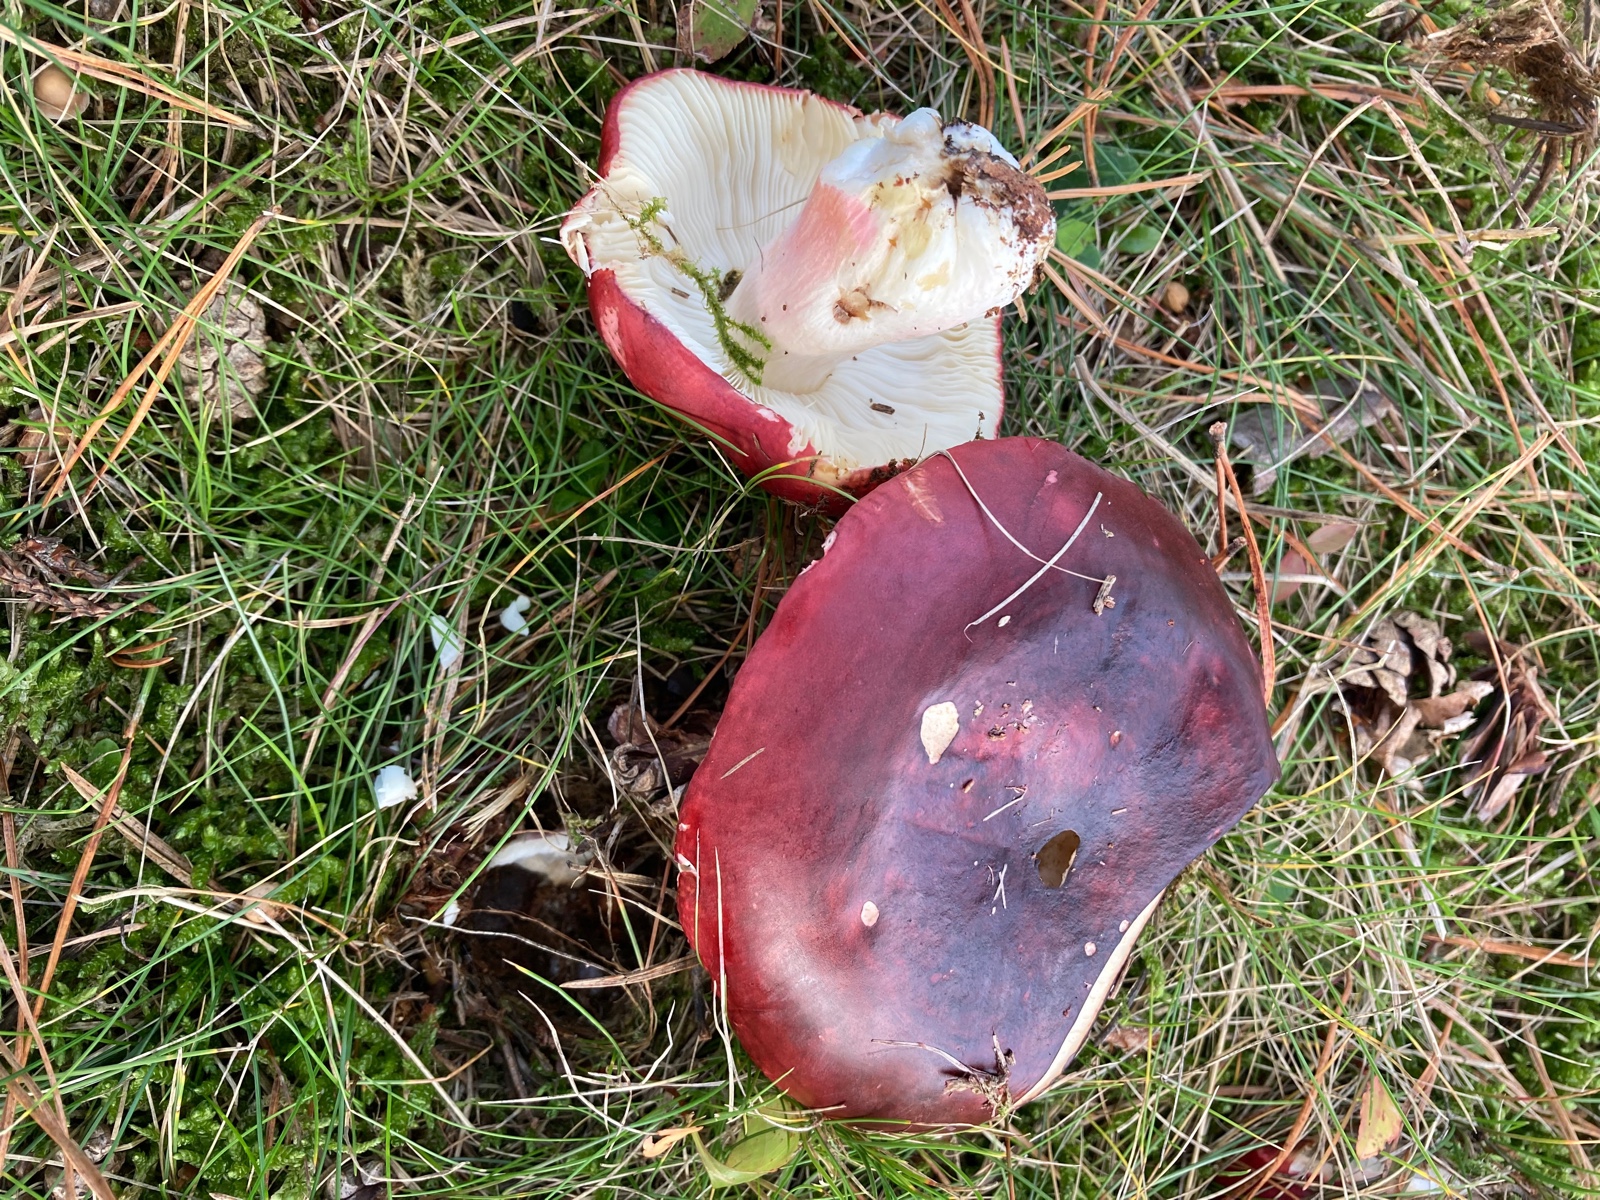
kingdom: Fungi
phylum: Basidiomycota
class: Agaricomycetes
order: Russulales
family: Russulaceae
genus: Russula
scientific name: Russula xerampelina
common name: hummer-skørhat
